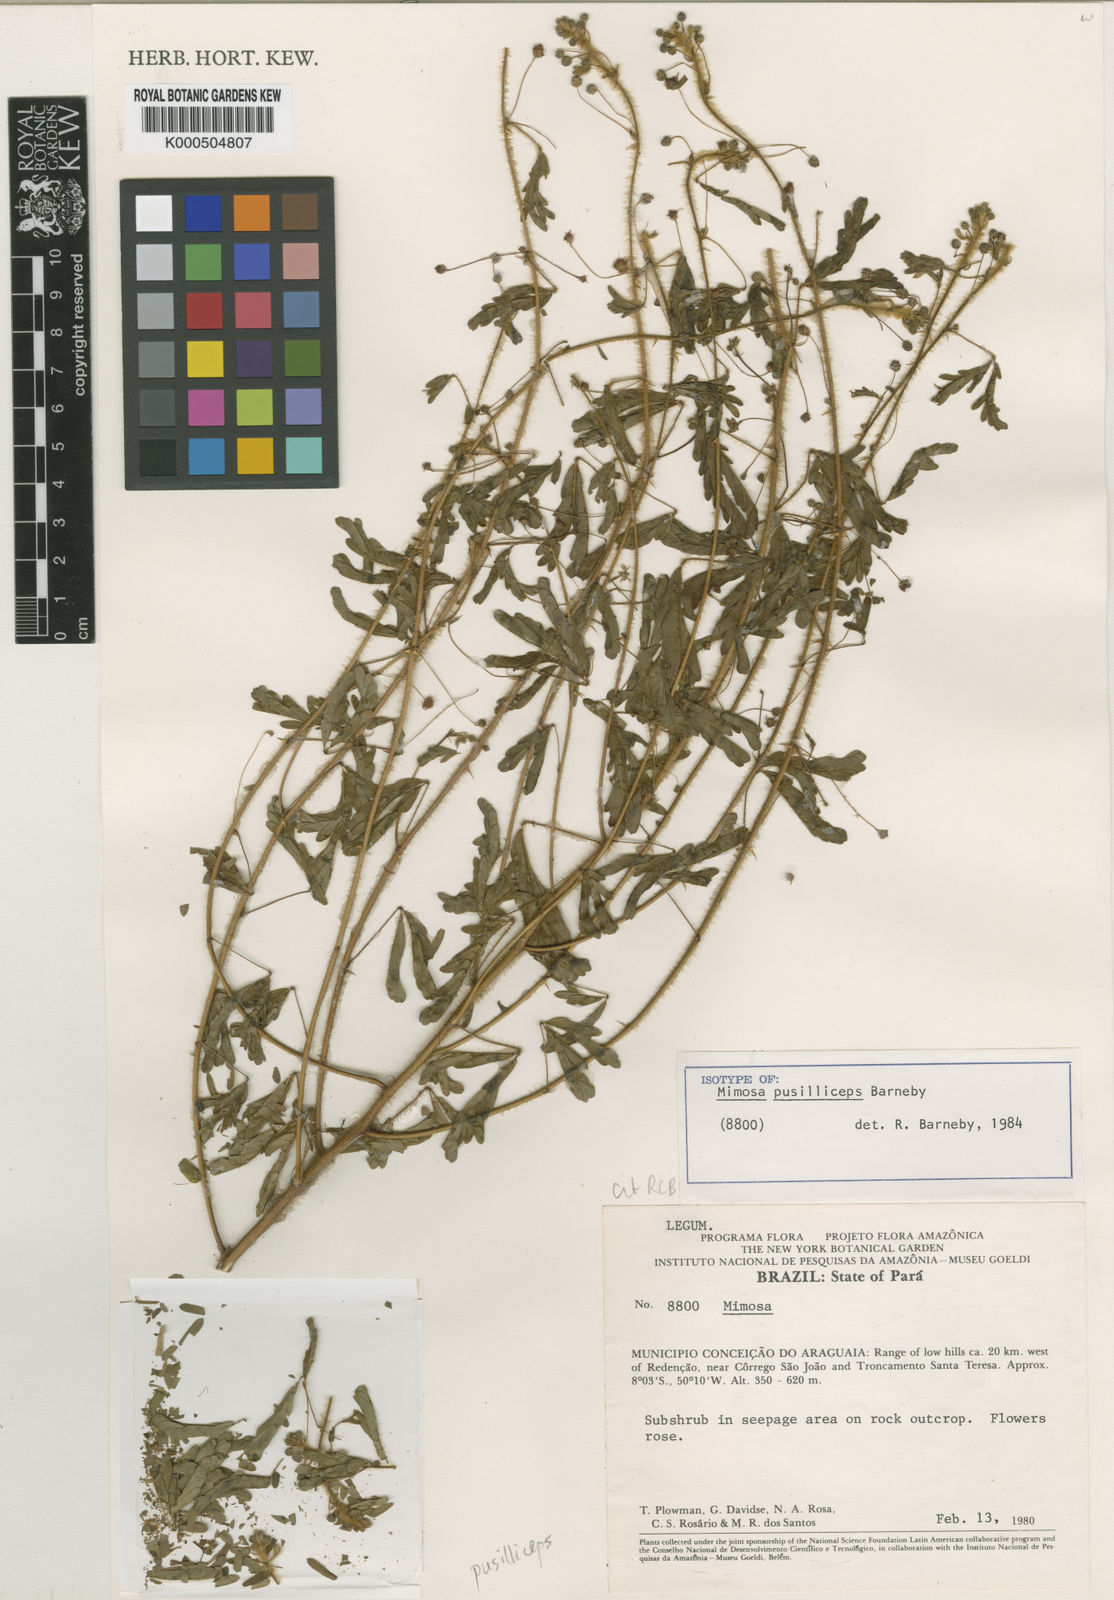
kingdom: Plantae
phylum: Tracheophyta
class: Magnoliopsida
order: Fabales
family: Fabaceae
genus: Mimosa
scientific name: Mimosa pusilliceps
